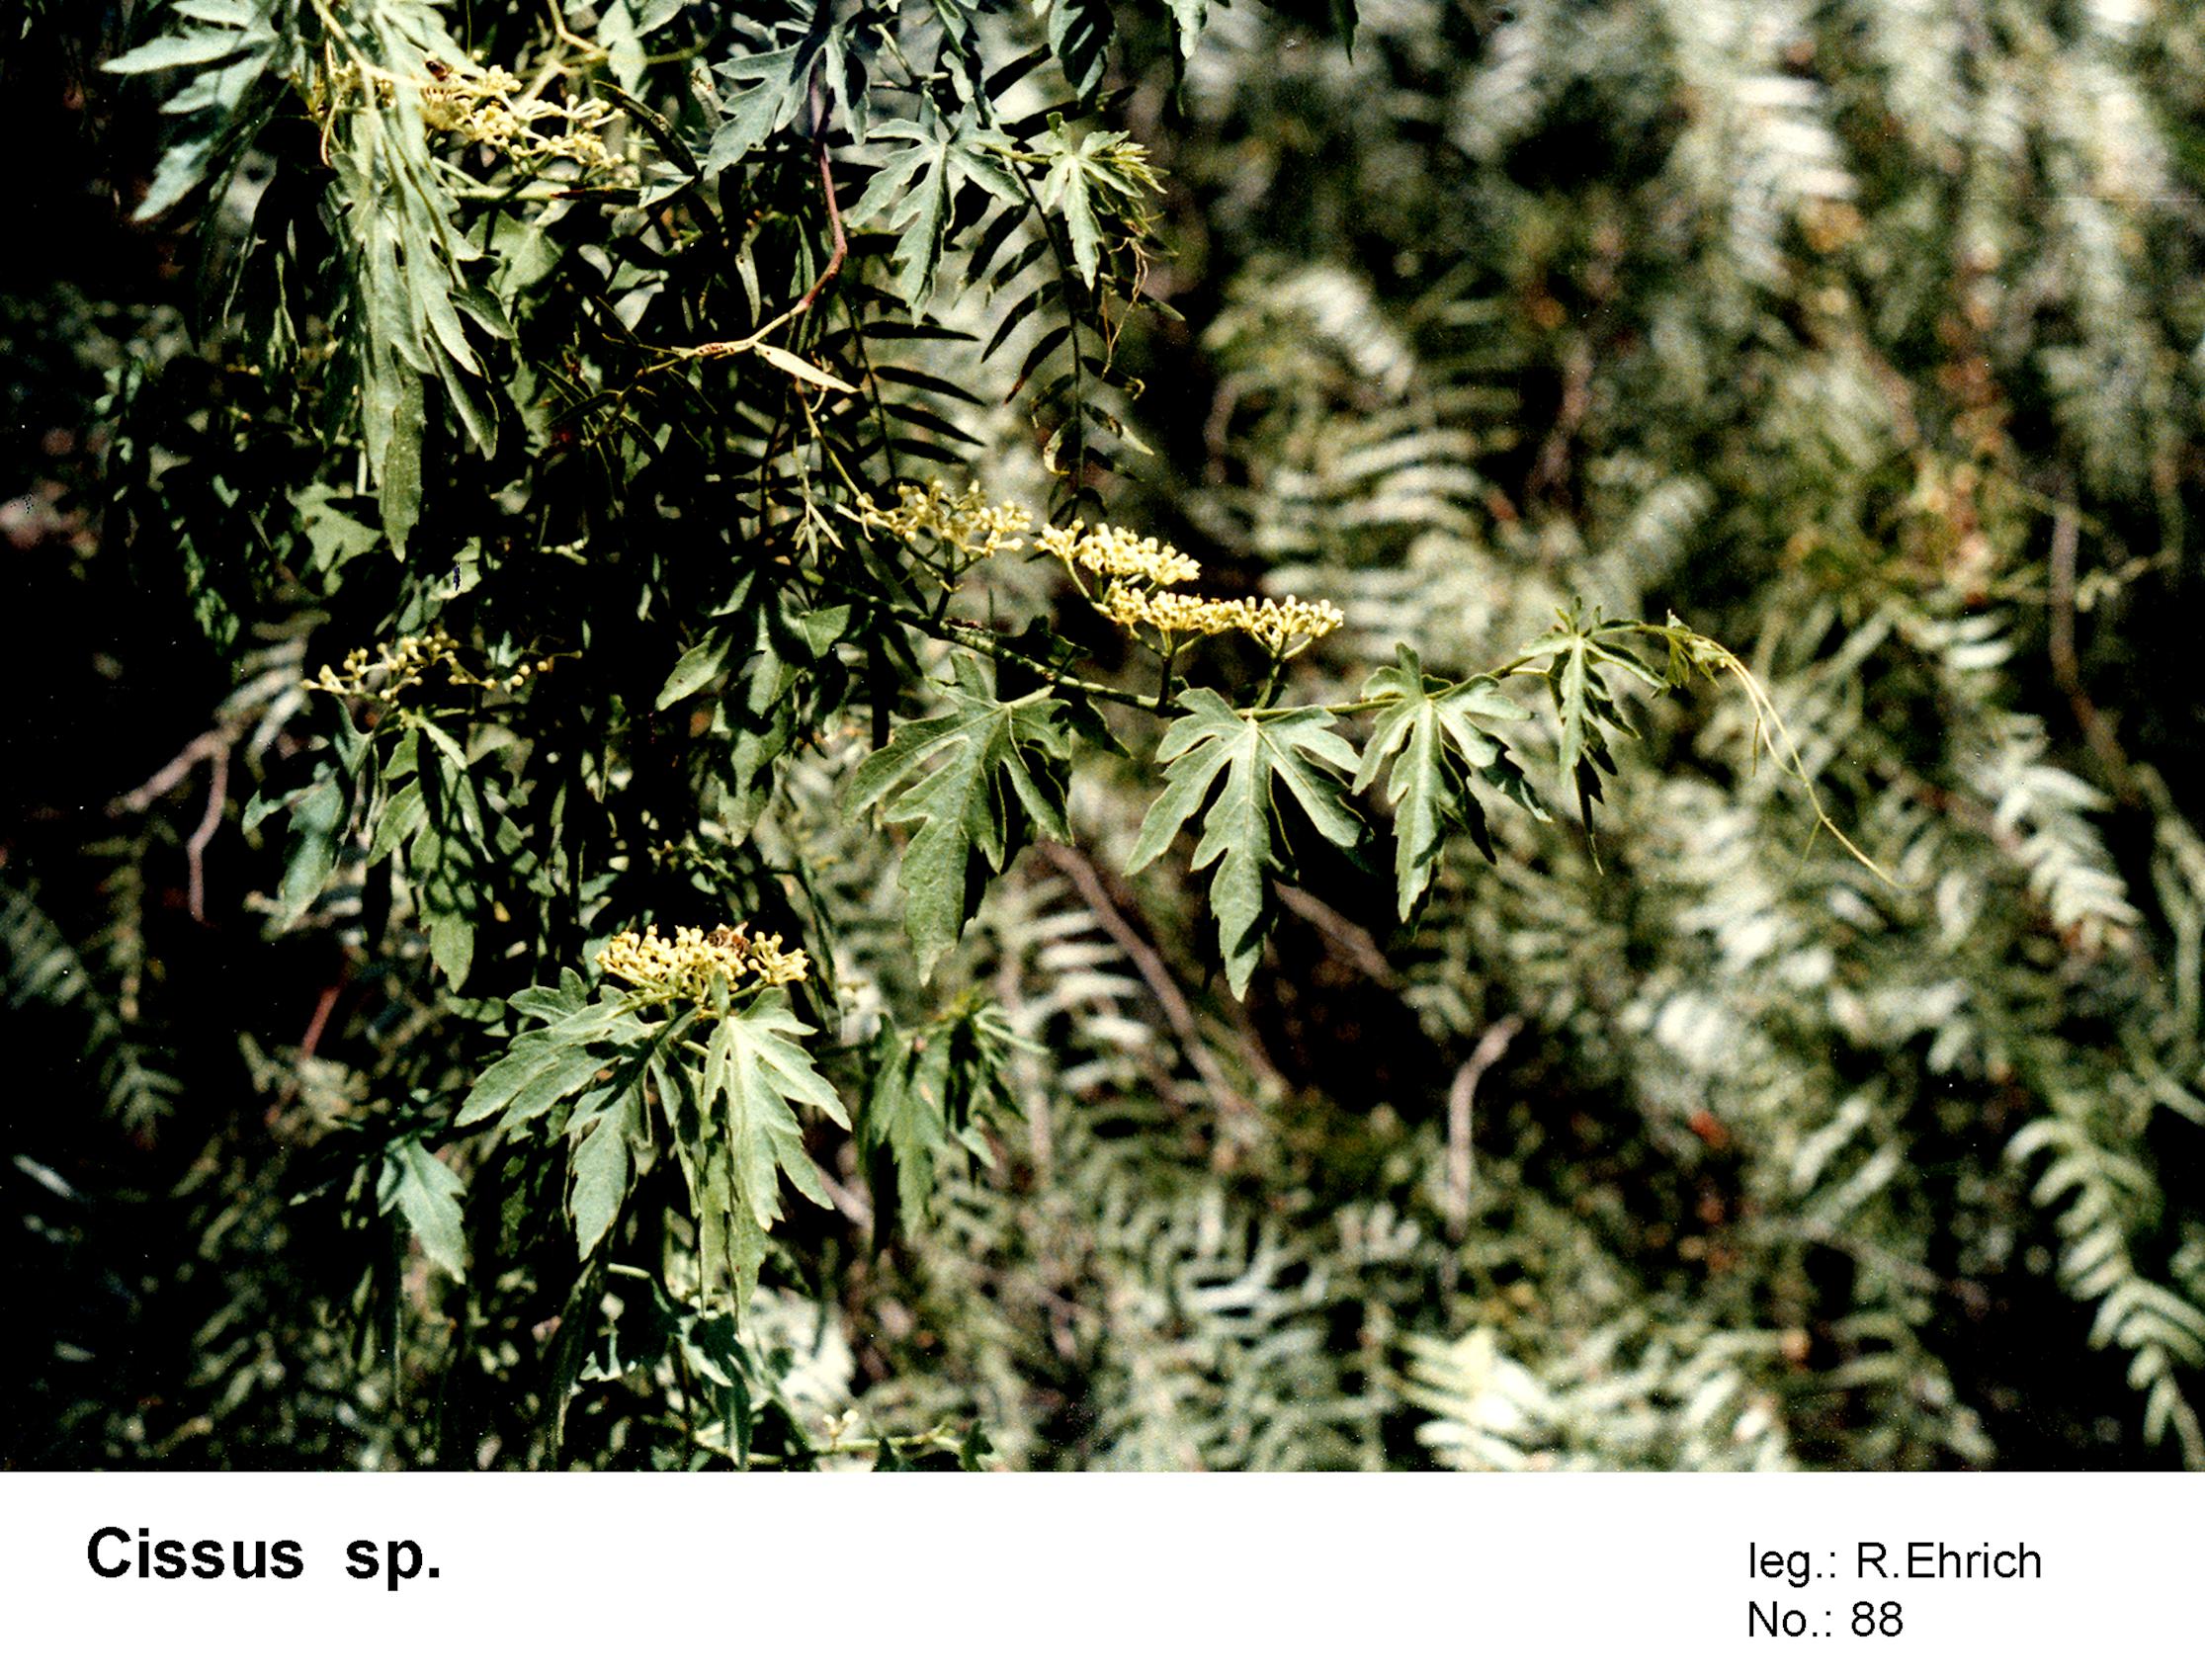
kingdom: Plantae
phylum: Tracheophyta
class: Magnoliopsida
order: Vitales
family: Vitaceae
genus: Cissus
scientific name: Cissus
